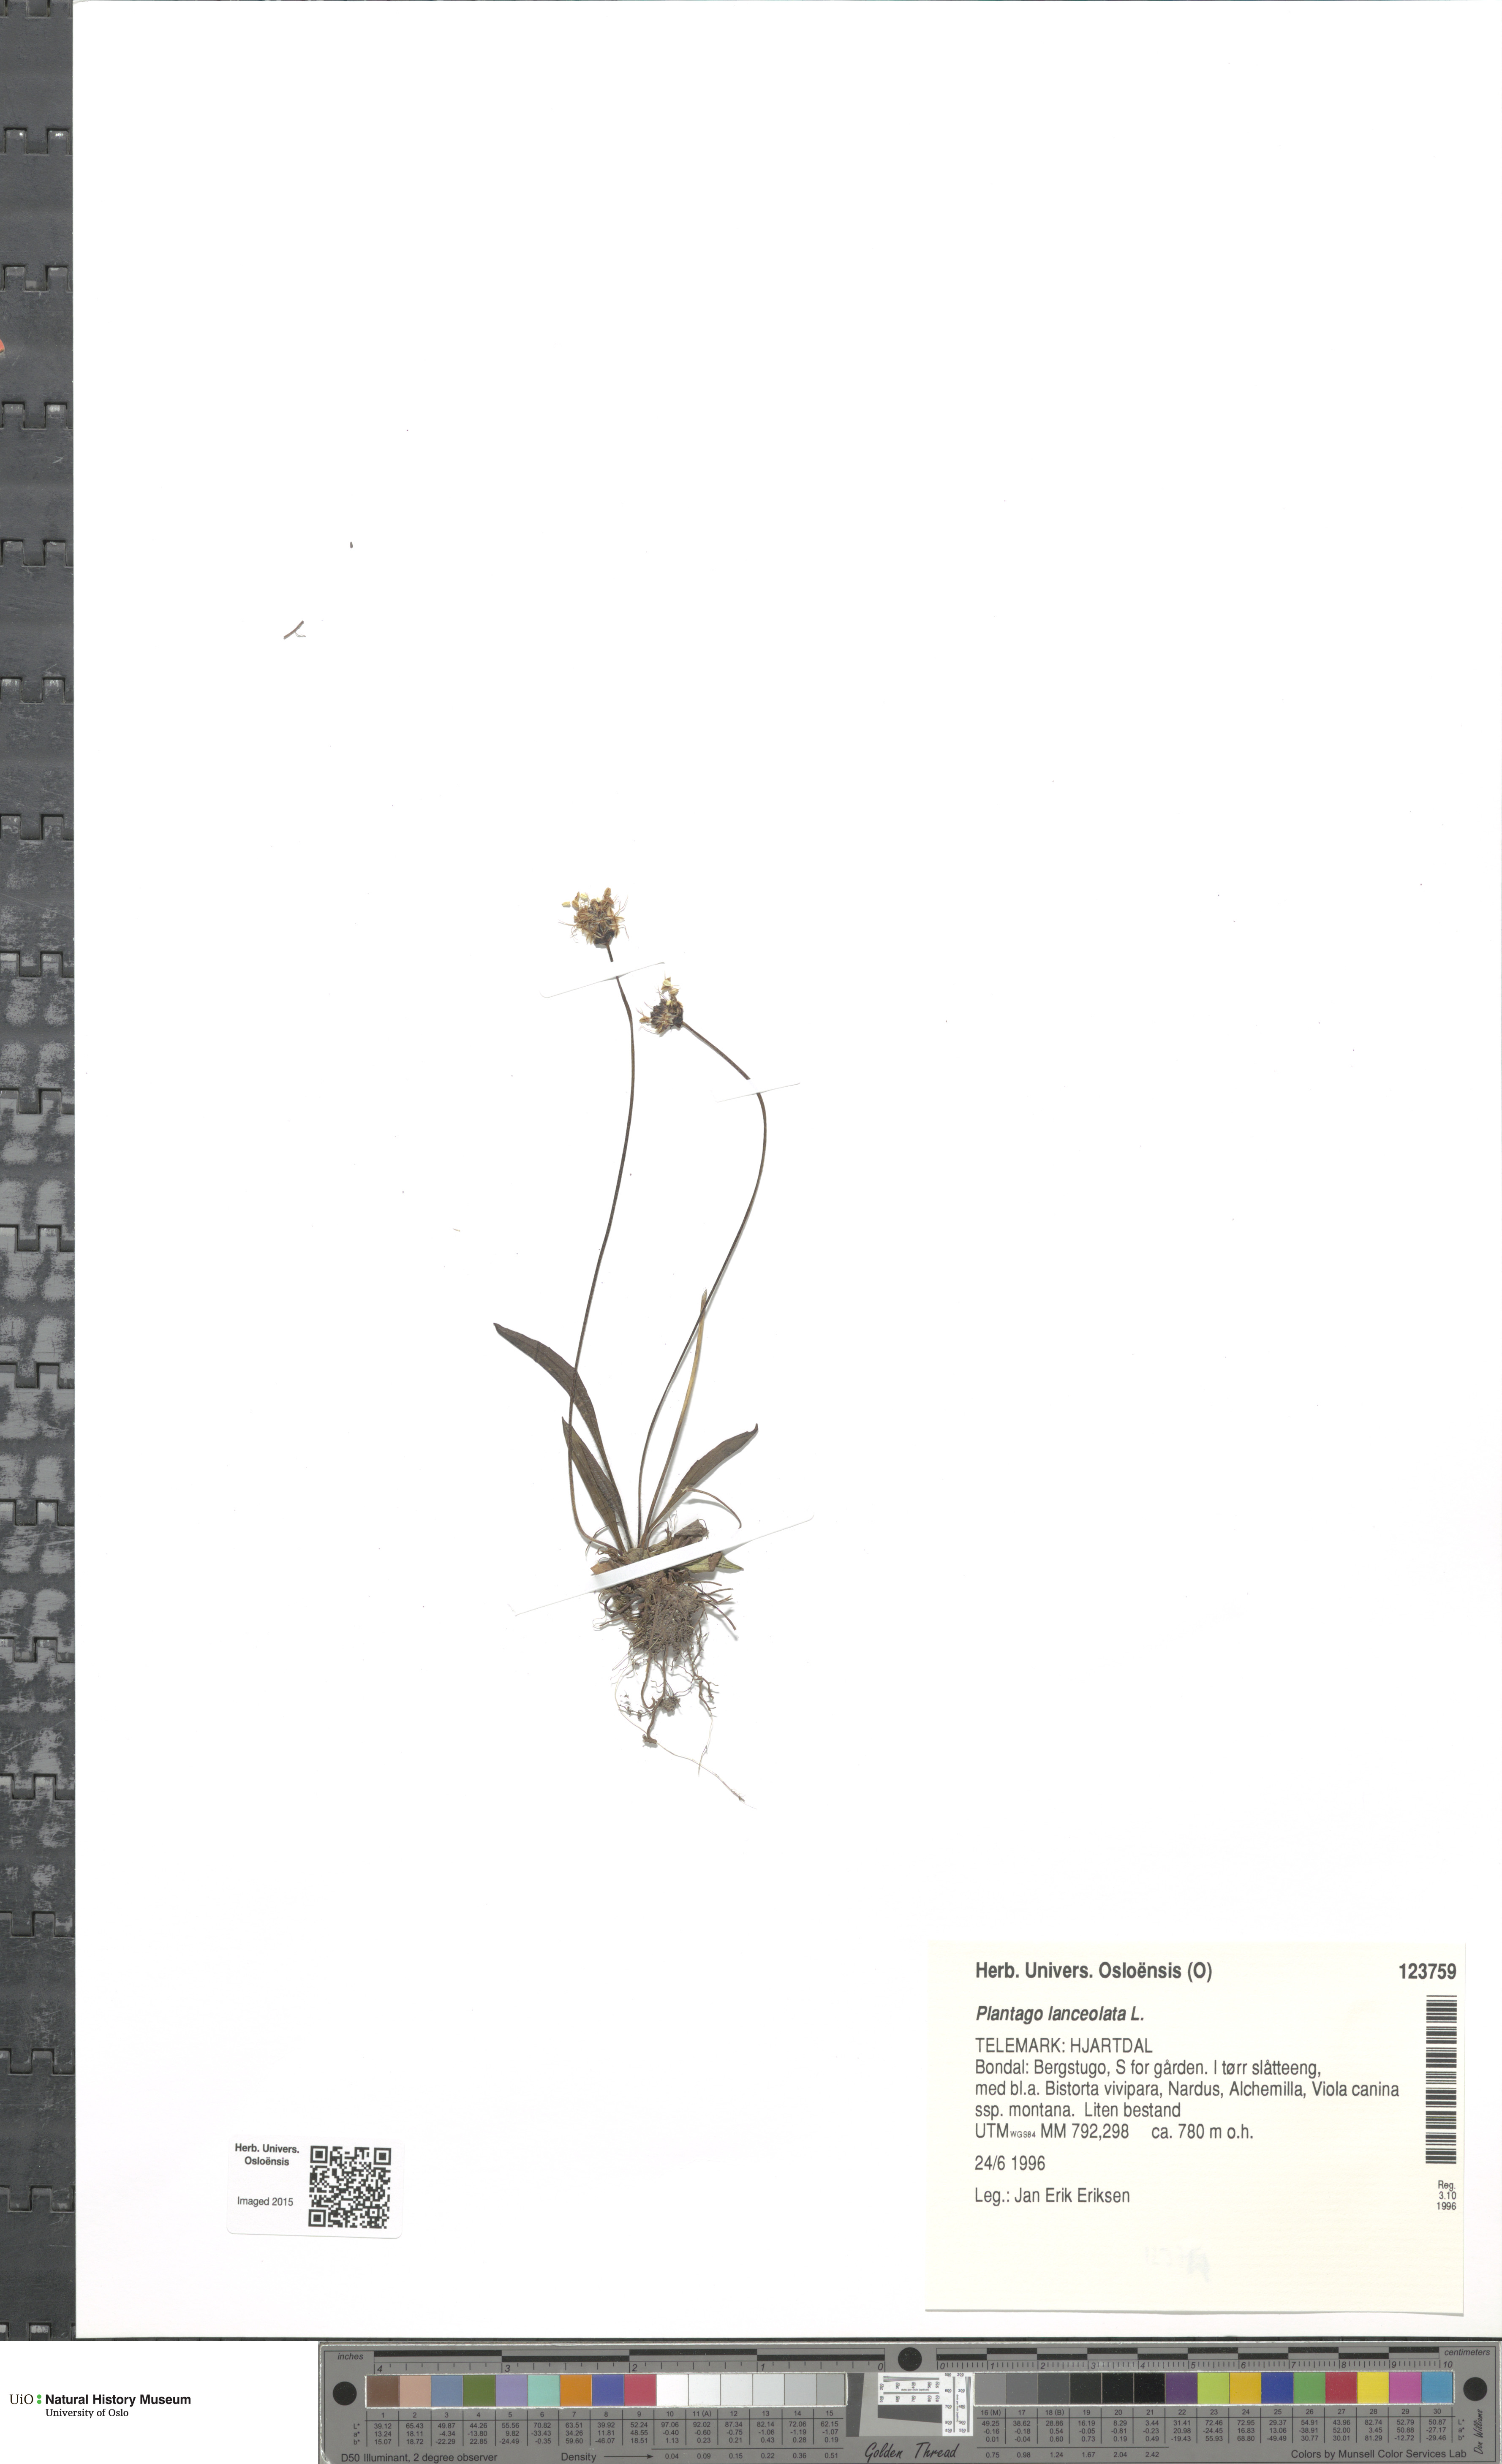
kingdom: Plantae
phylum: Tracheophyta
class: Magnoliopsida
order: Lamiales
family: Plantaginaceae
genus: Plantago
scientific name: Plantago lanceolata
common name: Ribwort plantain
